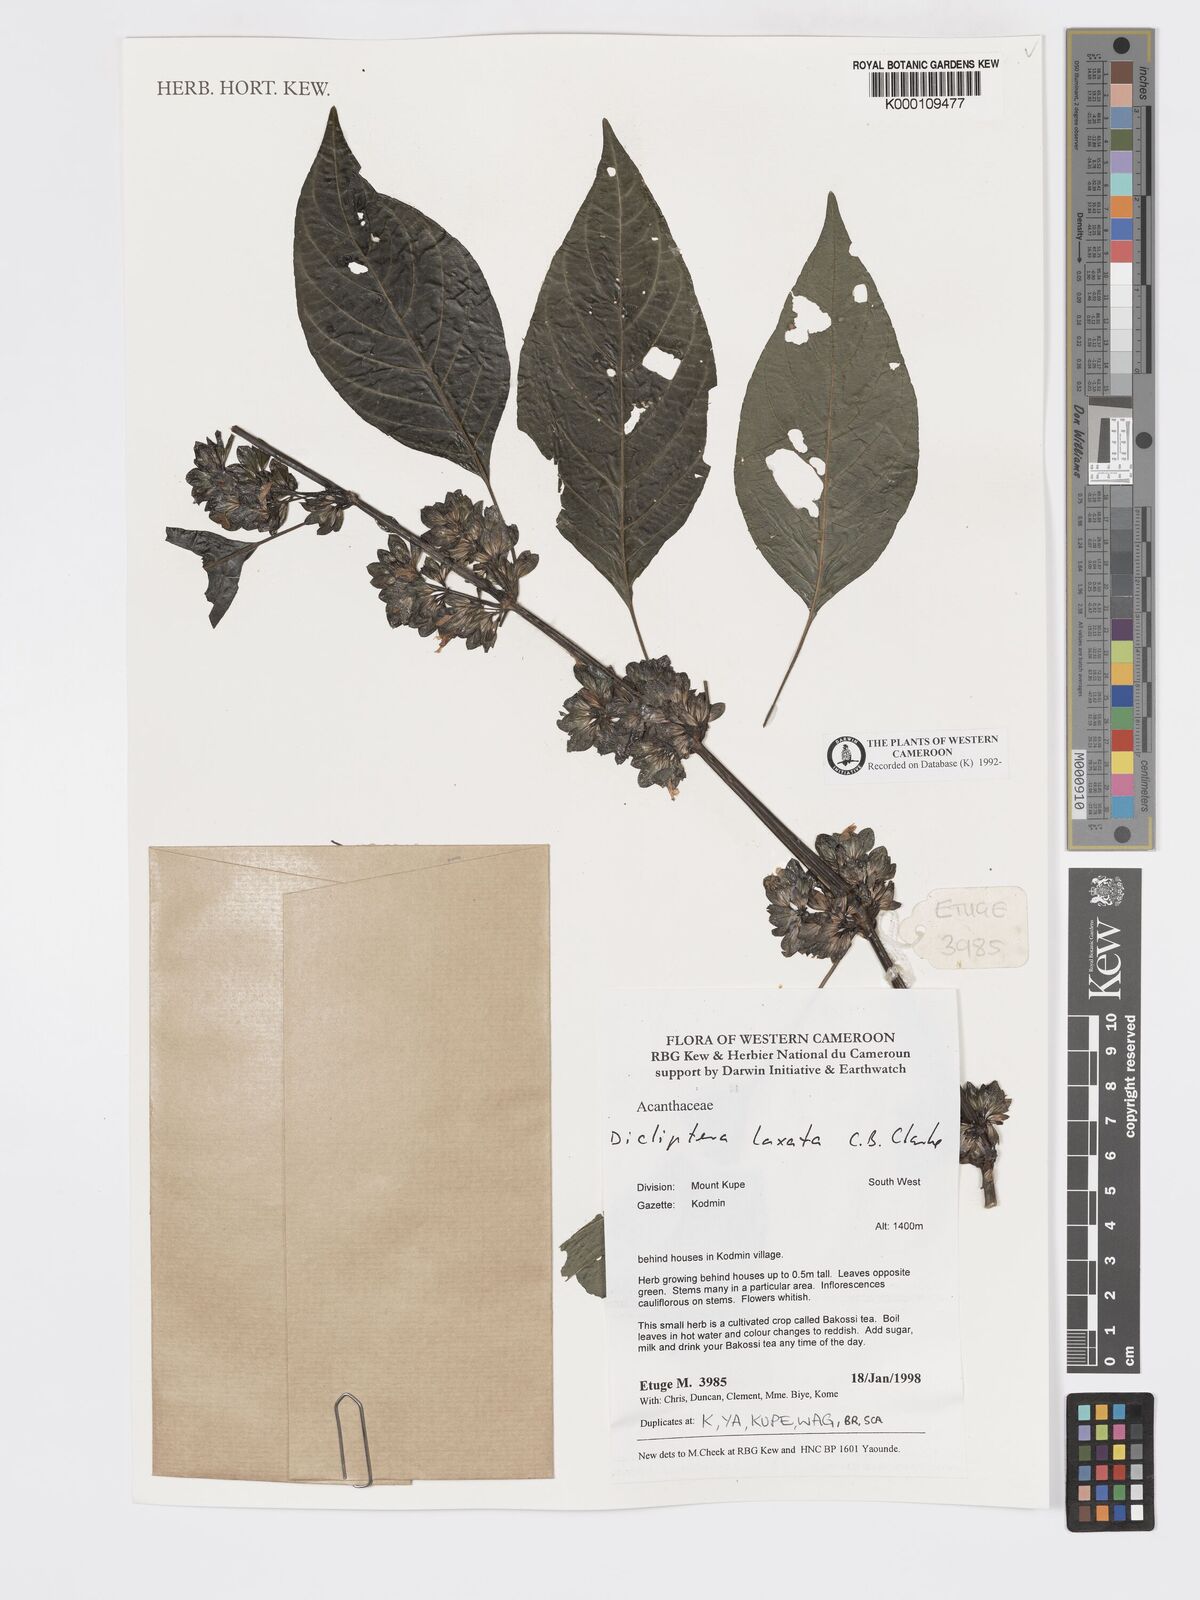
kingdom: Plantae
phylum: Tracheophyta
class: Magnoliopsida
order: Lamiales
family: Acanthaceae
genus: Dicliptera
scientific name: Dicliptera laxata
